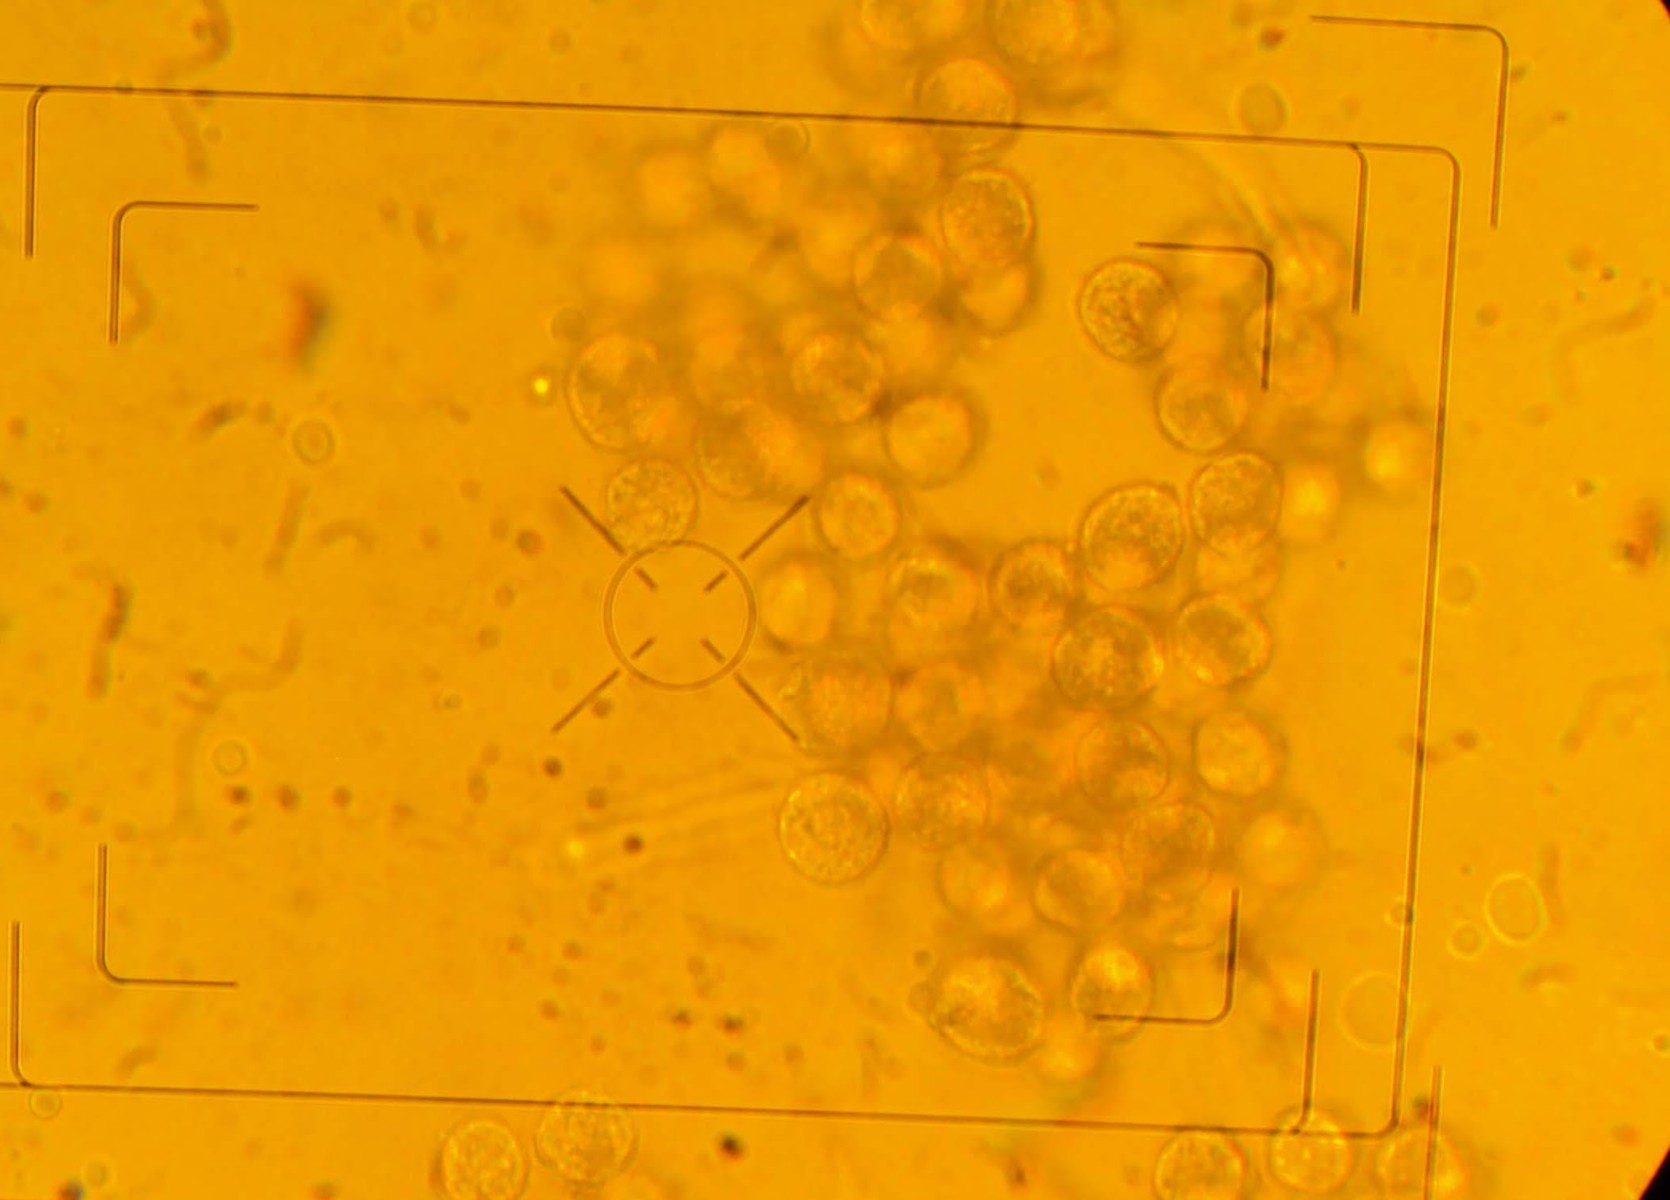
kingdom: Protozoa
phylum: Mycetozoa
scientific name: Mycetozoa
